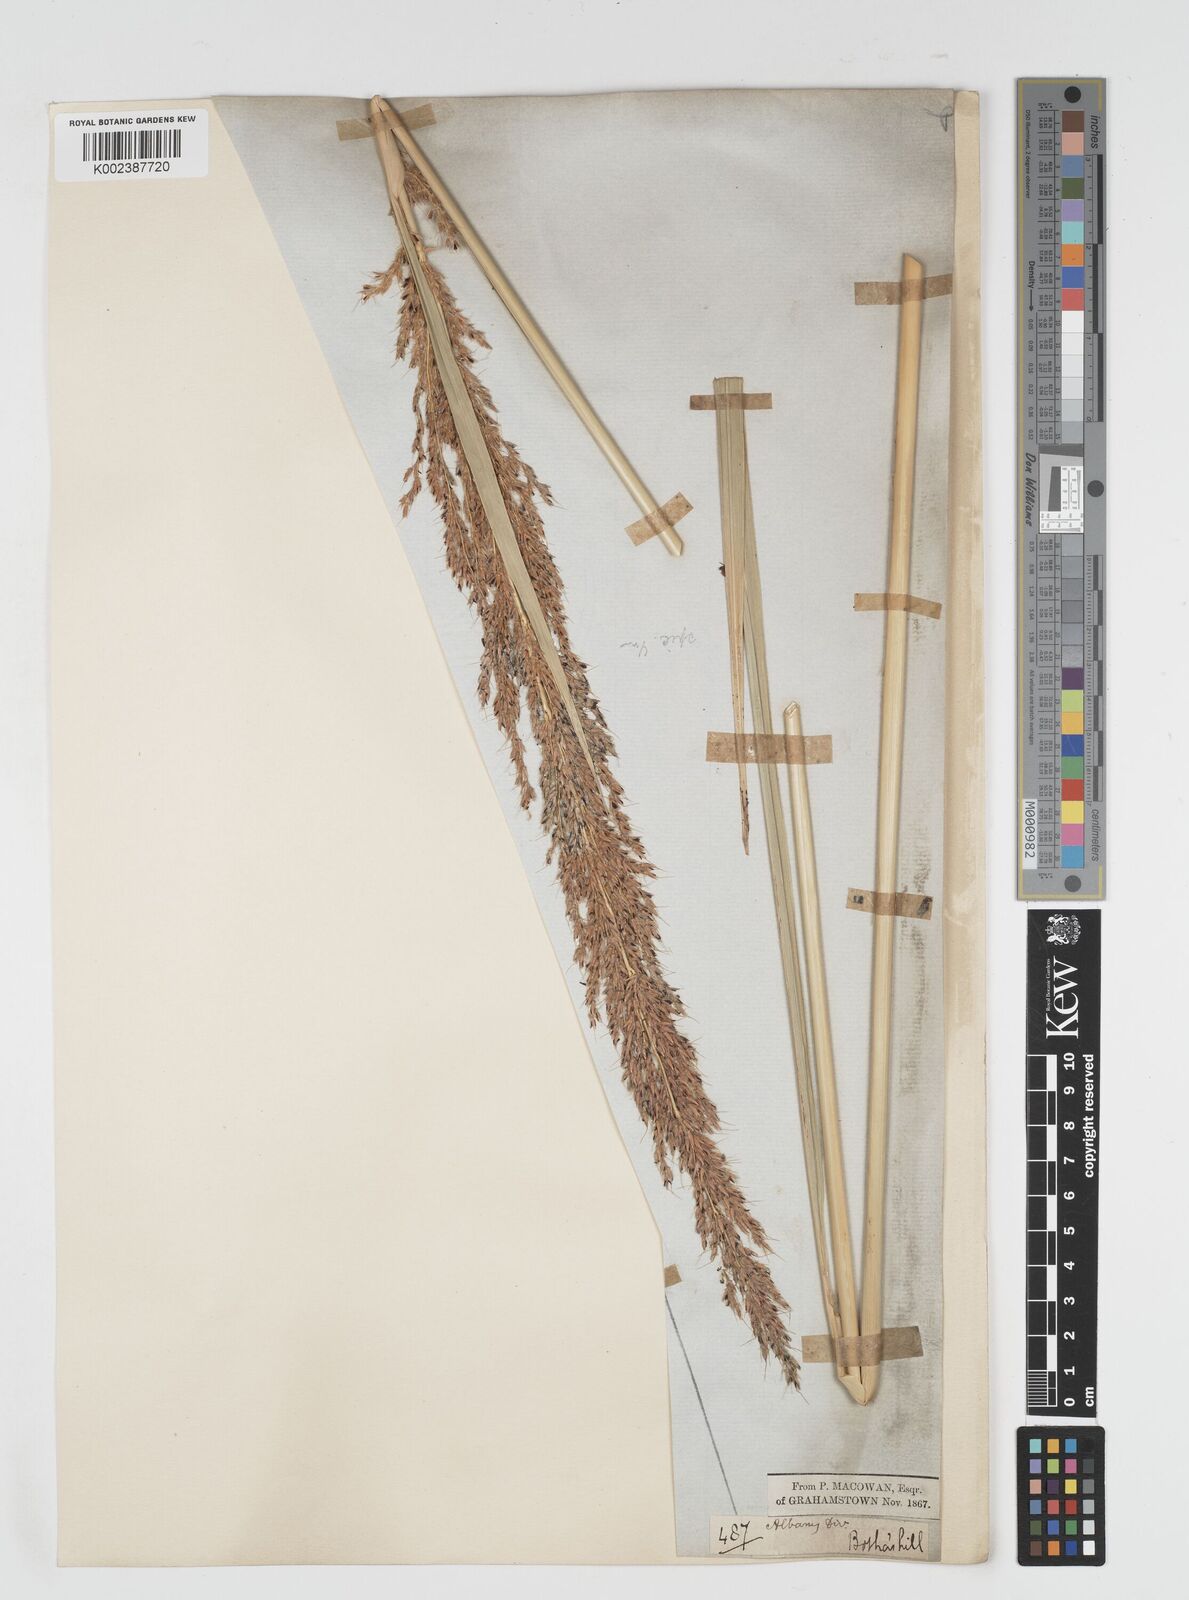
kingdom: Plantae
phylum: Tracheophyta
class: Liliopsida
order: Poales
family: Poaceae
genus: Miscanthus
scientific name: Miscanthus ecklonii
